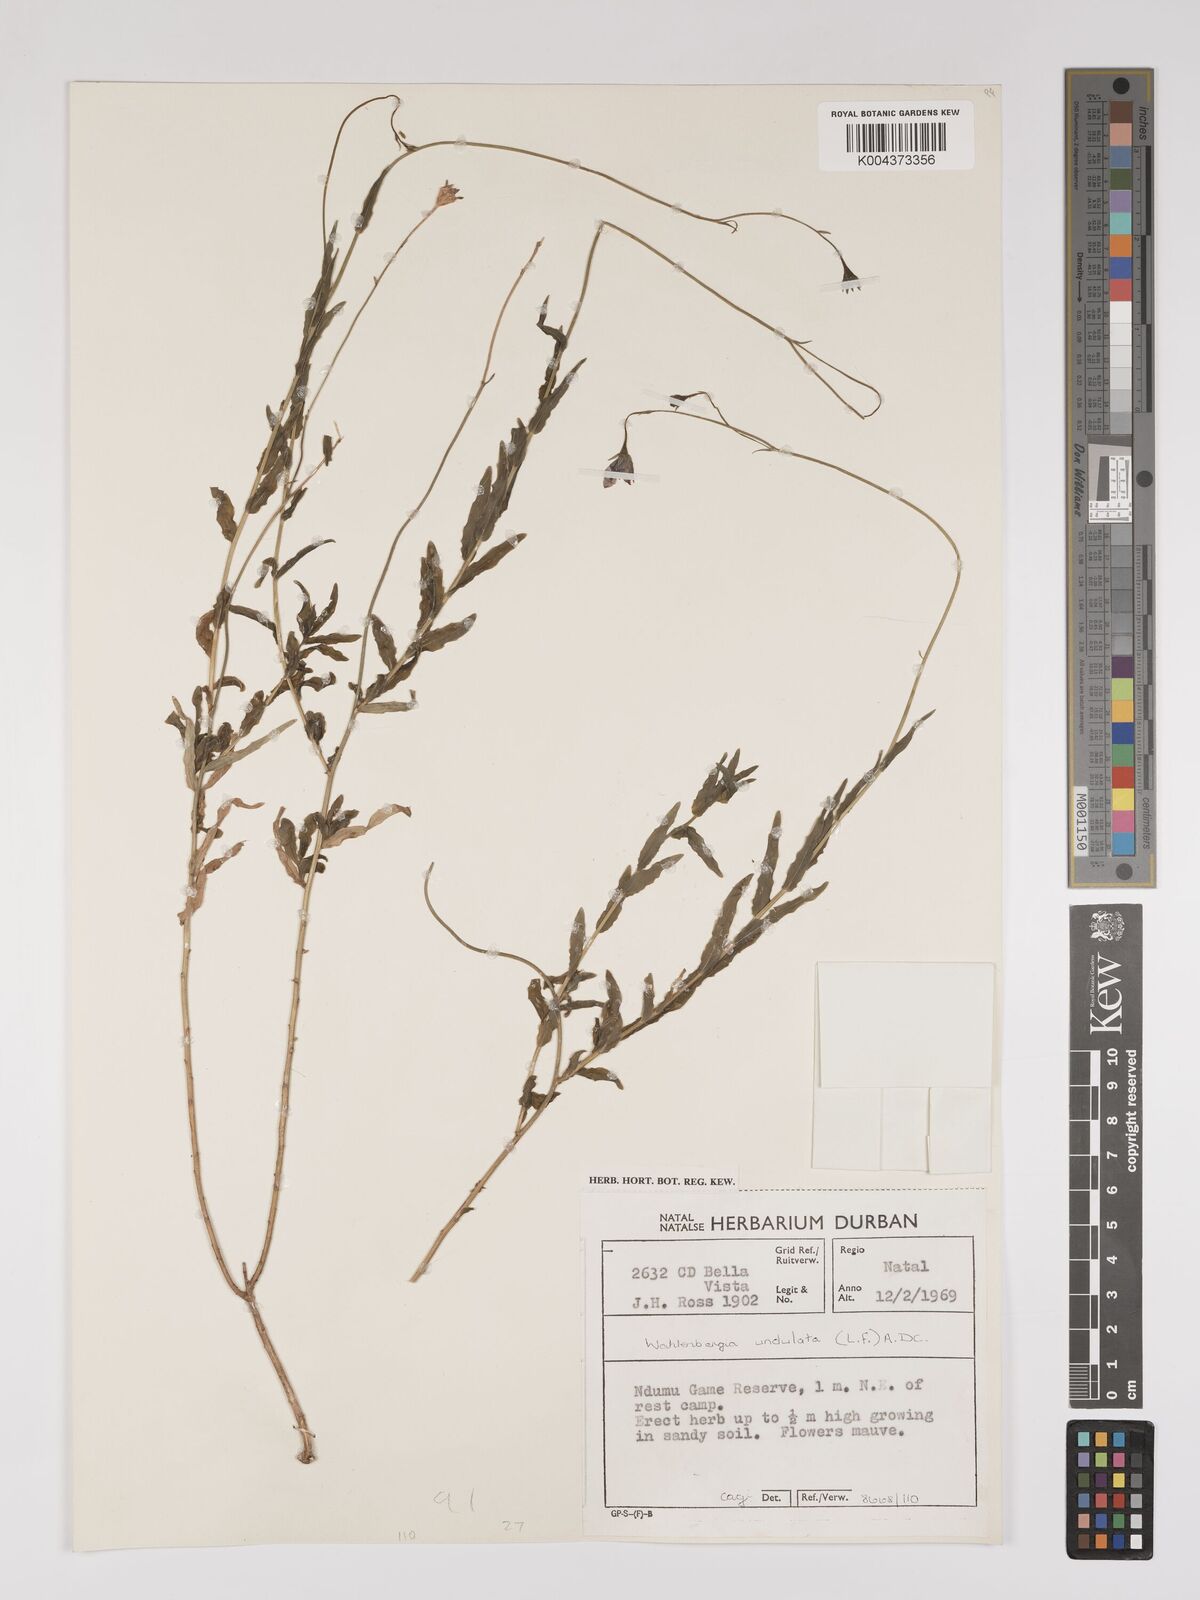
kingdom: Plantae
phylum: Tracheophyta
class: Magnoliopsida
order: Asterales
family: Campanulaceae
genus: Wahlenbergia
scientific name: Wahlenbergia undulata
